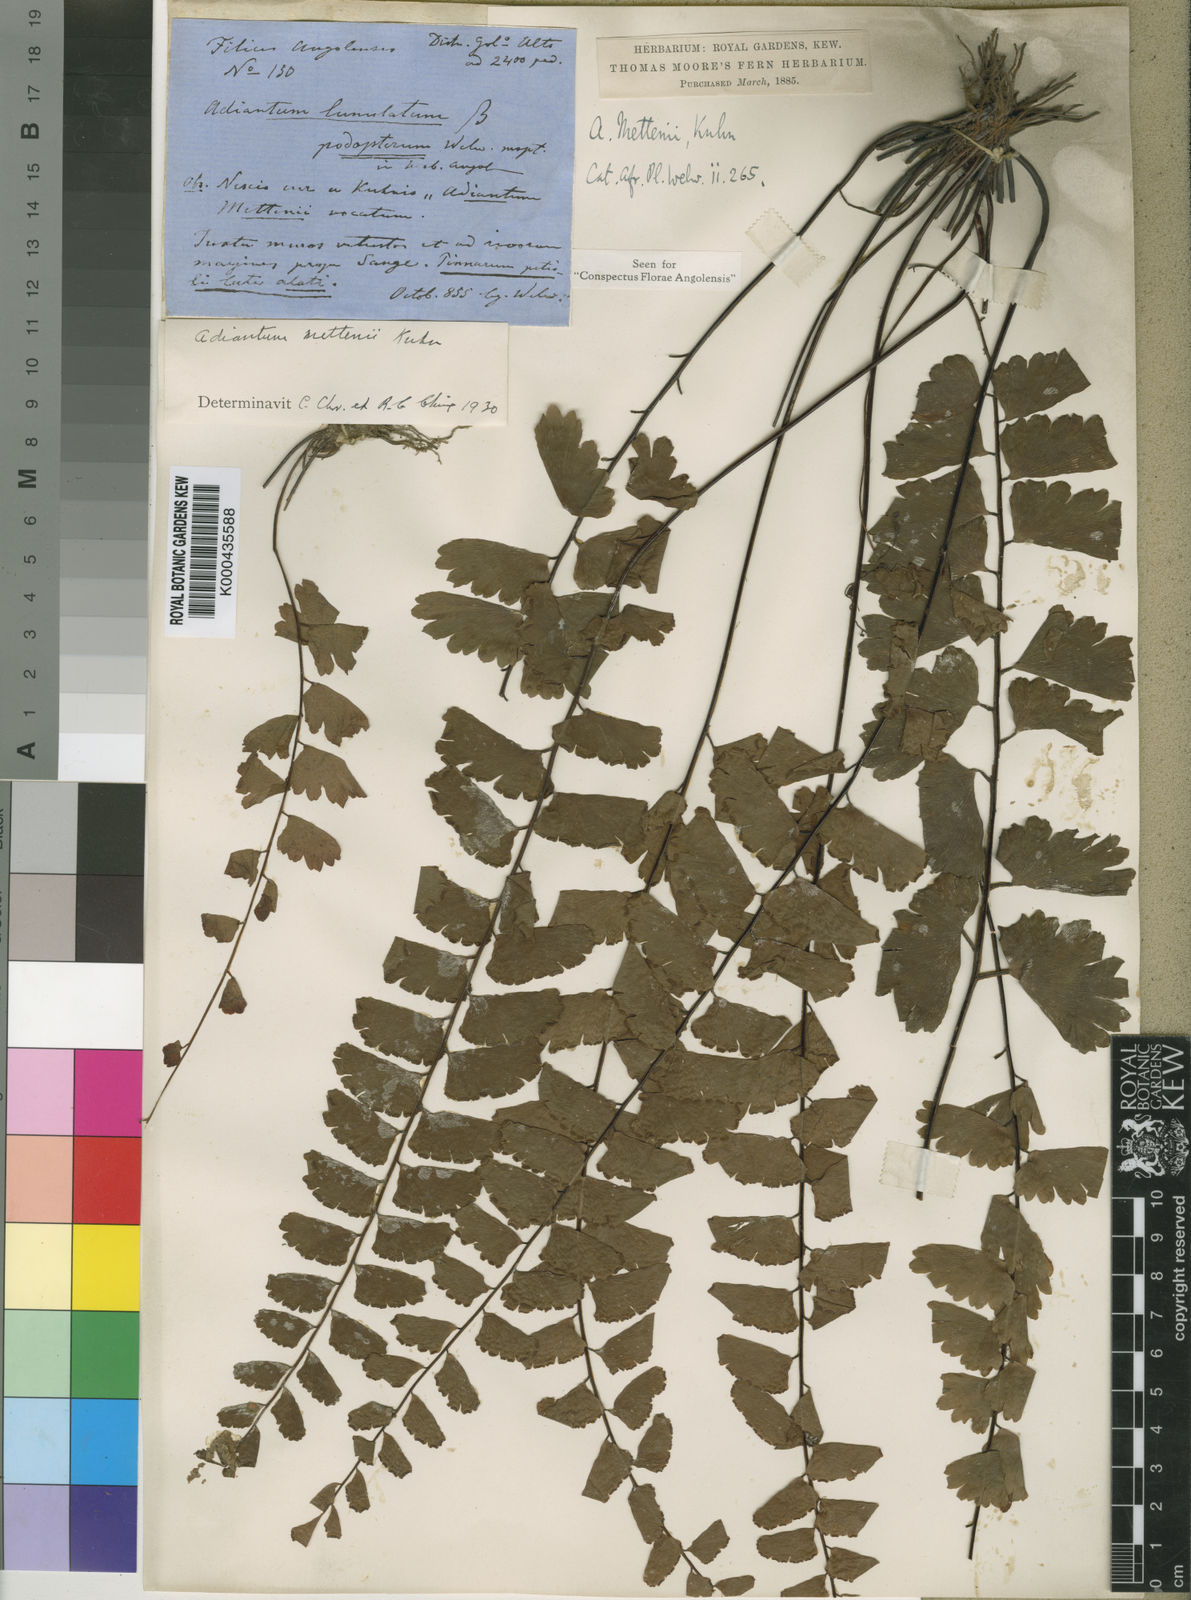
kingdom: Plantae
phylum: Tracheophyta
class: Polypodiopsida
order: Polypodiales
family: Pteridaceae
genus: Adiantum
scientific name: Adiantum
